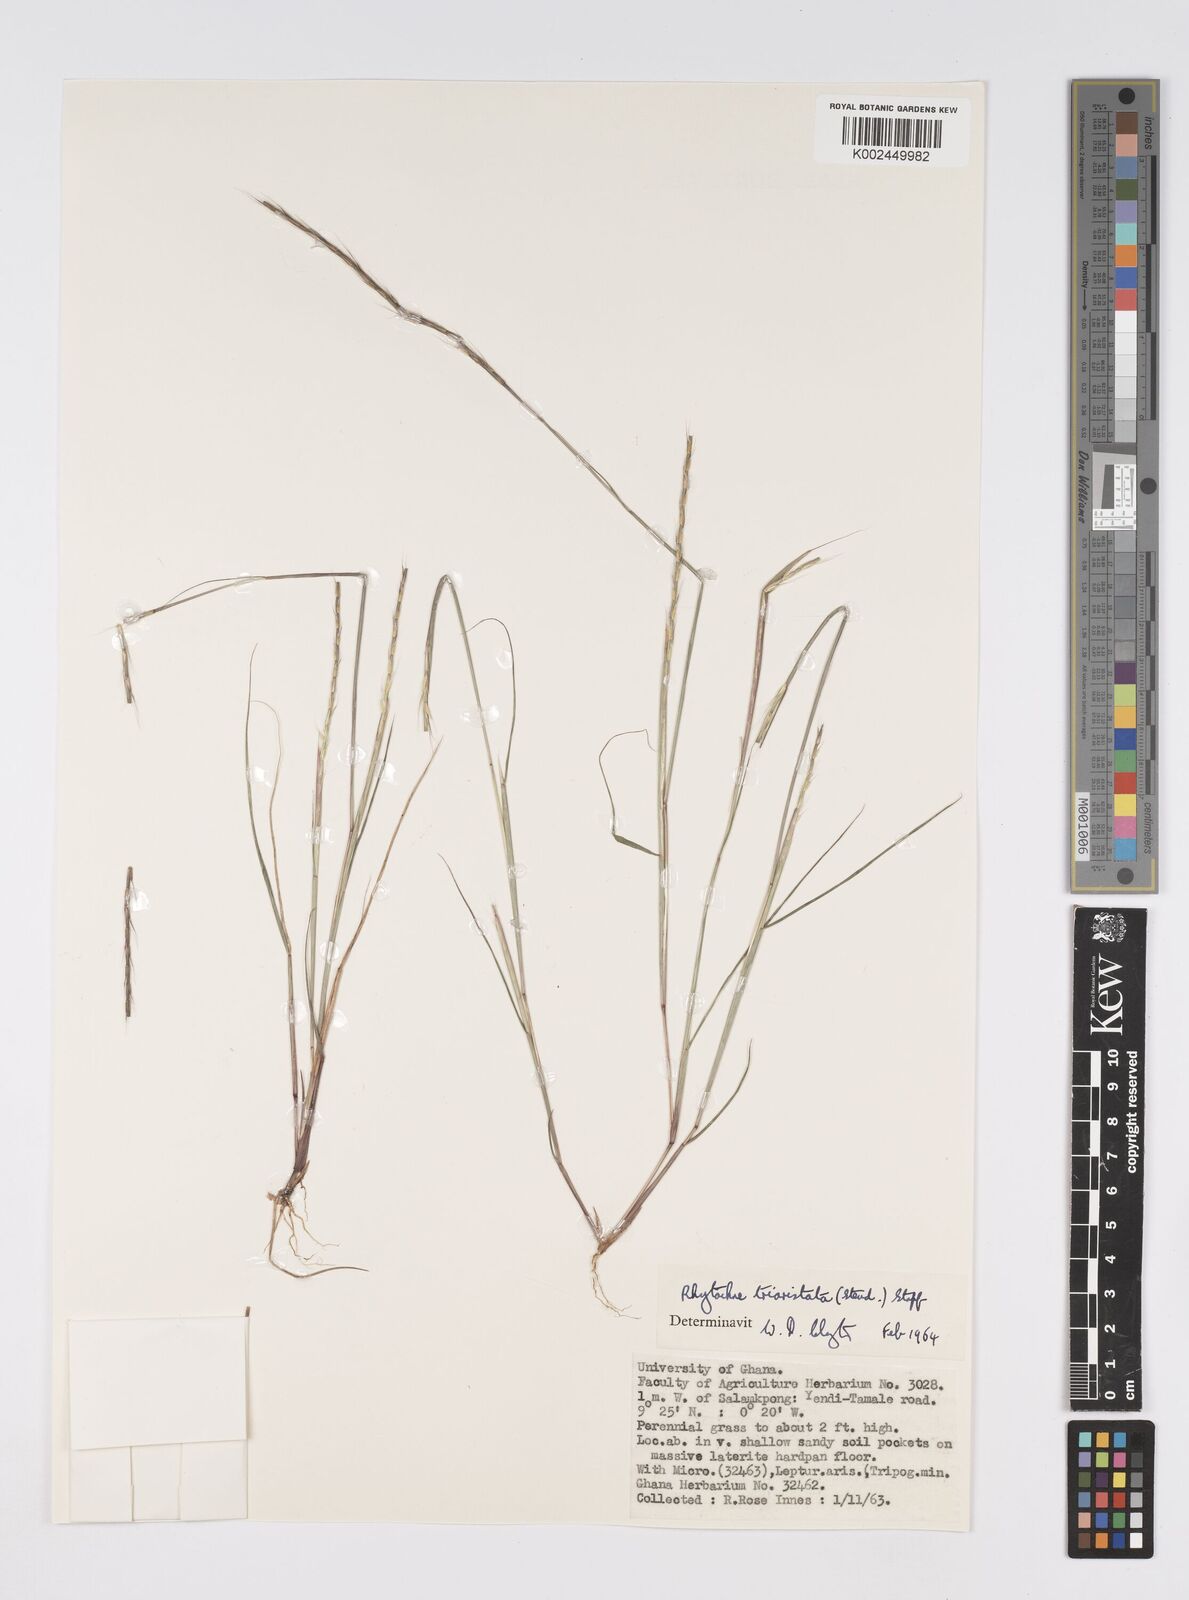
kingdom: Plantae
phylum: Tracheophyta
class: Liliopsida
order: Poales
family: Poaceae
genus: Rhytachne
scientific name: Rhytachne triaristata
